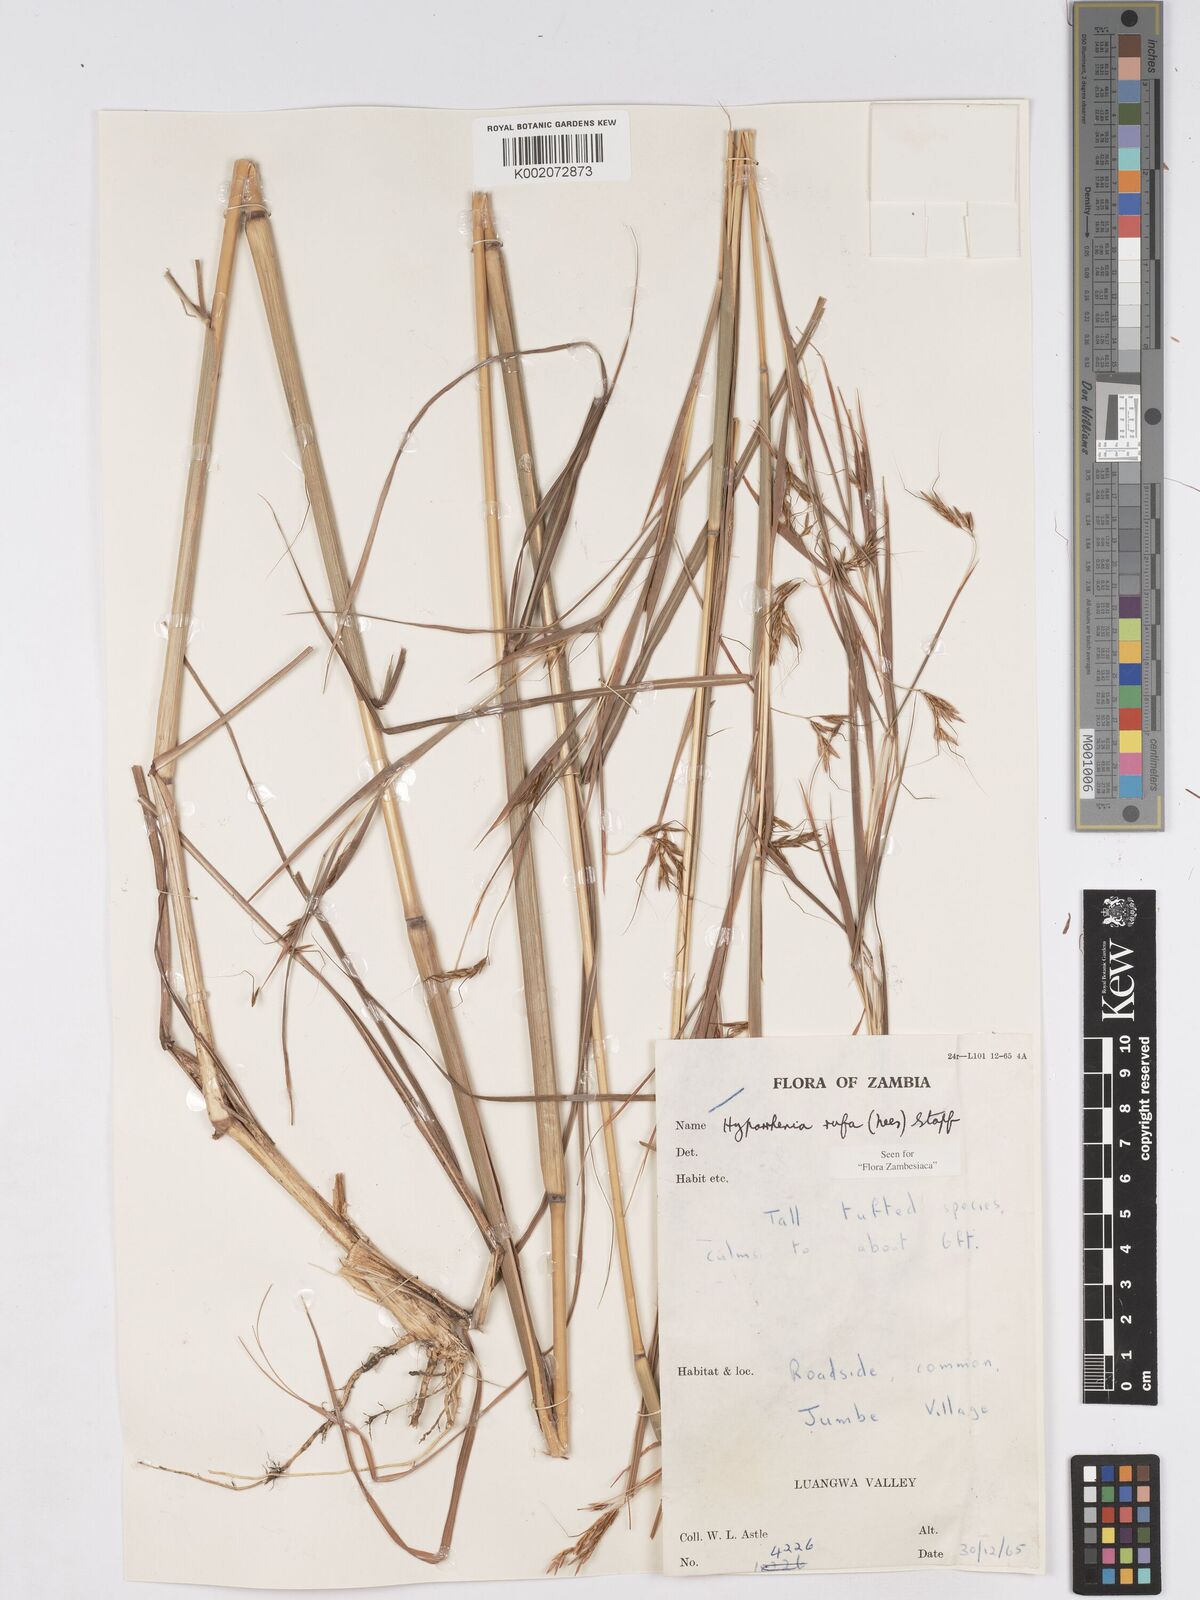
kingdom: Plantae
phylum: Tracheophyta
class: Liliopsida
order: Poales
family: Poaceae
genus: Hyparrhenia
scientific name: Hyparrhenia rufa
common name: Jaraguagrass
